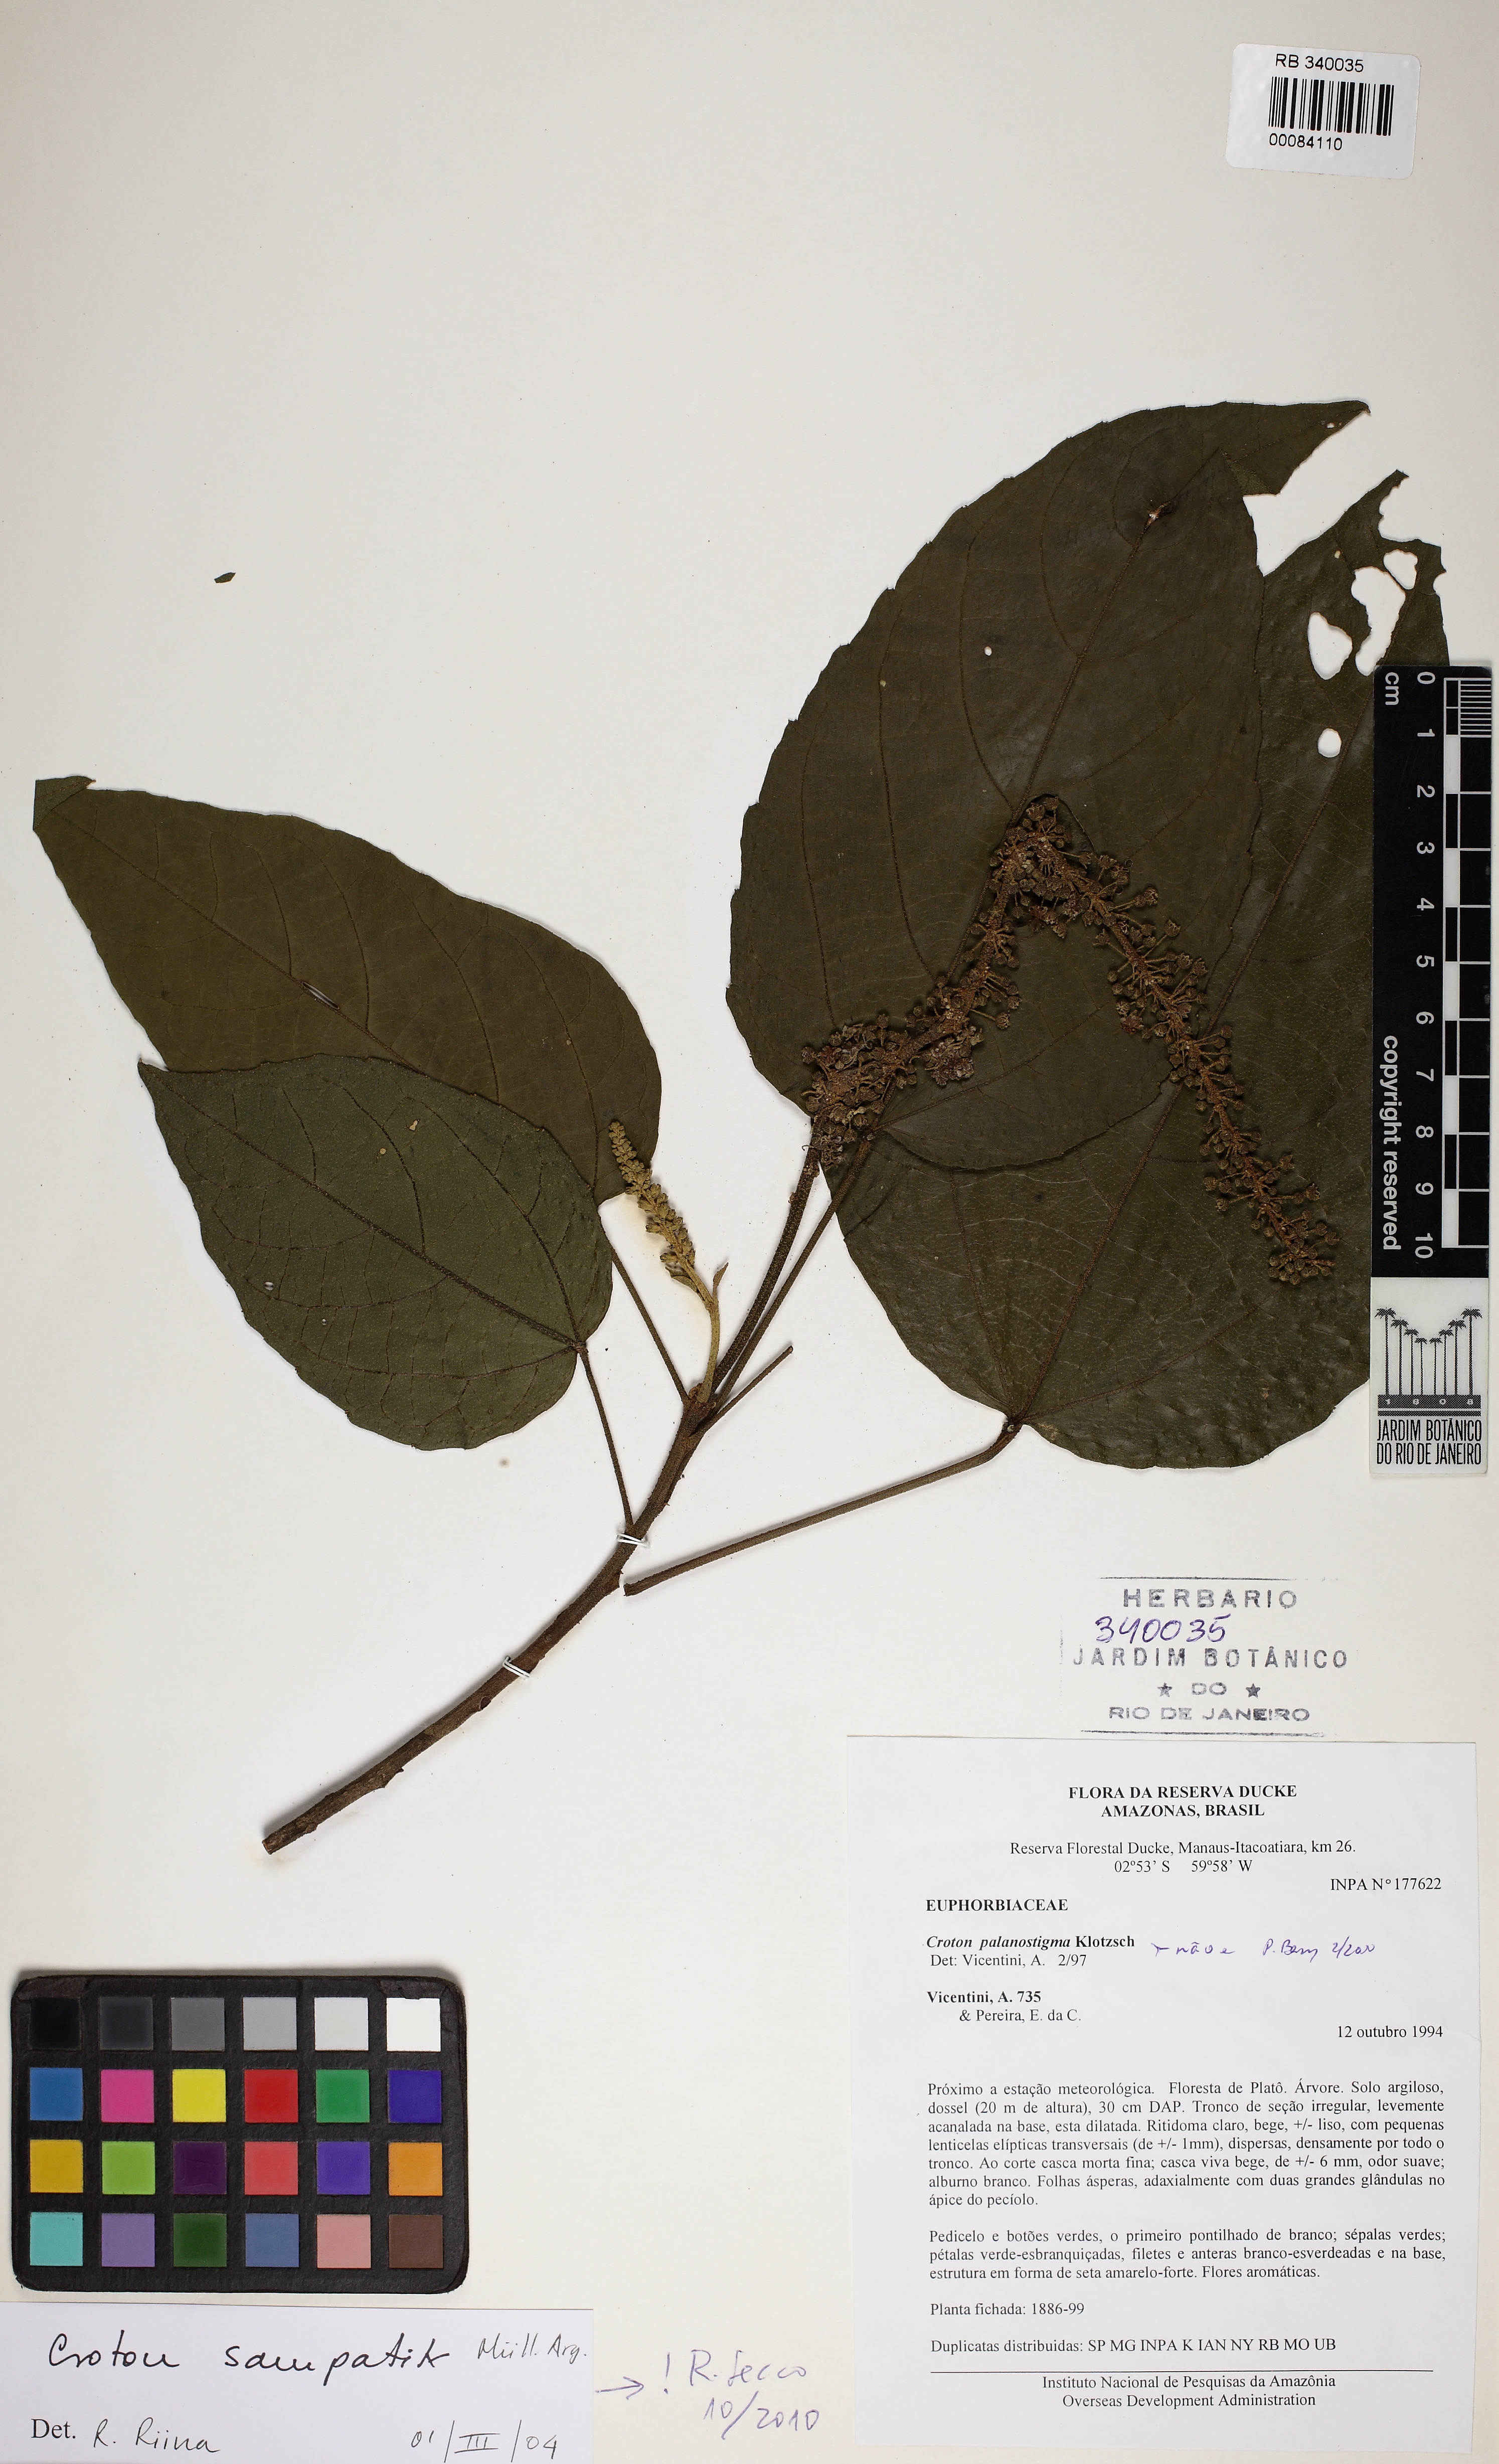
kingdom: Plantae
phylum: Tracheophyta
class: Magnoliopsida
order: Malpighiales
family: Euphorbiaceae
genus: Croton
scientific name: Croton sampatik
